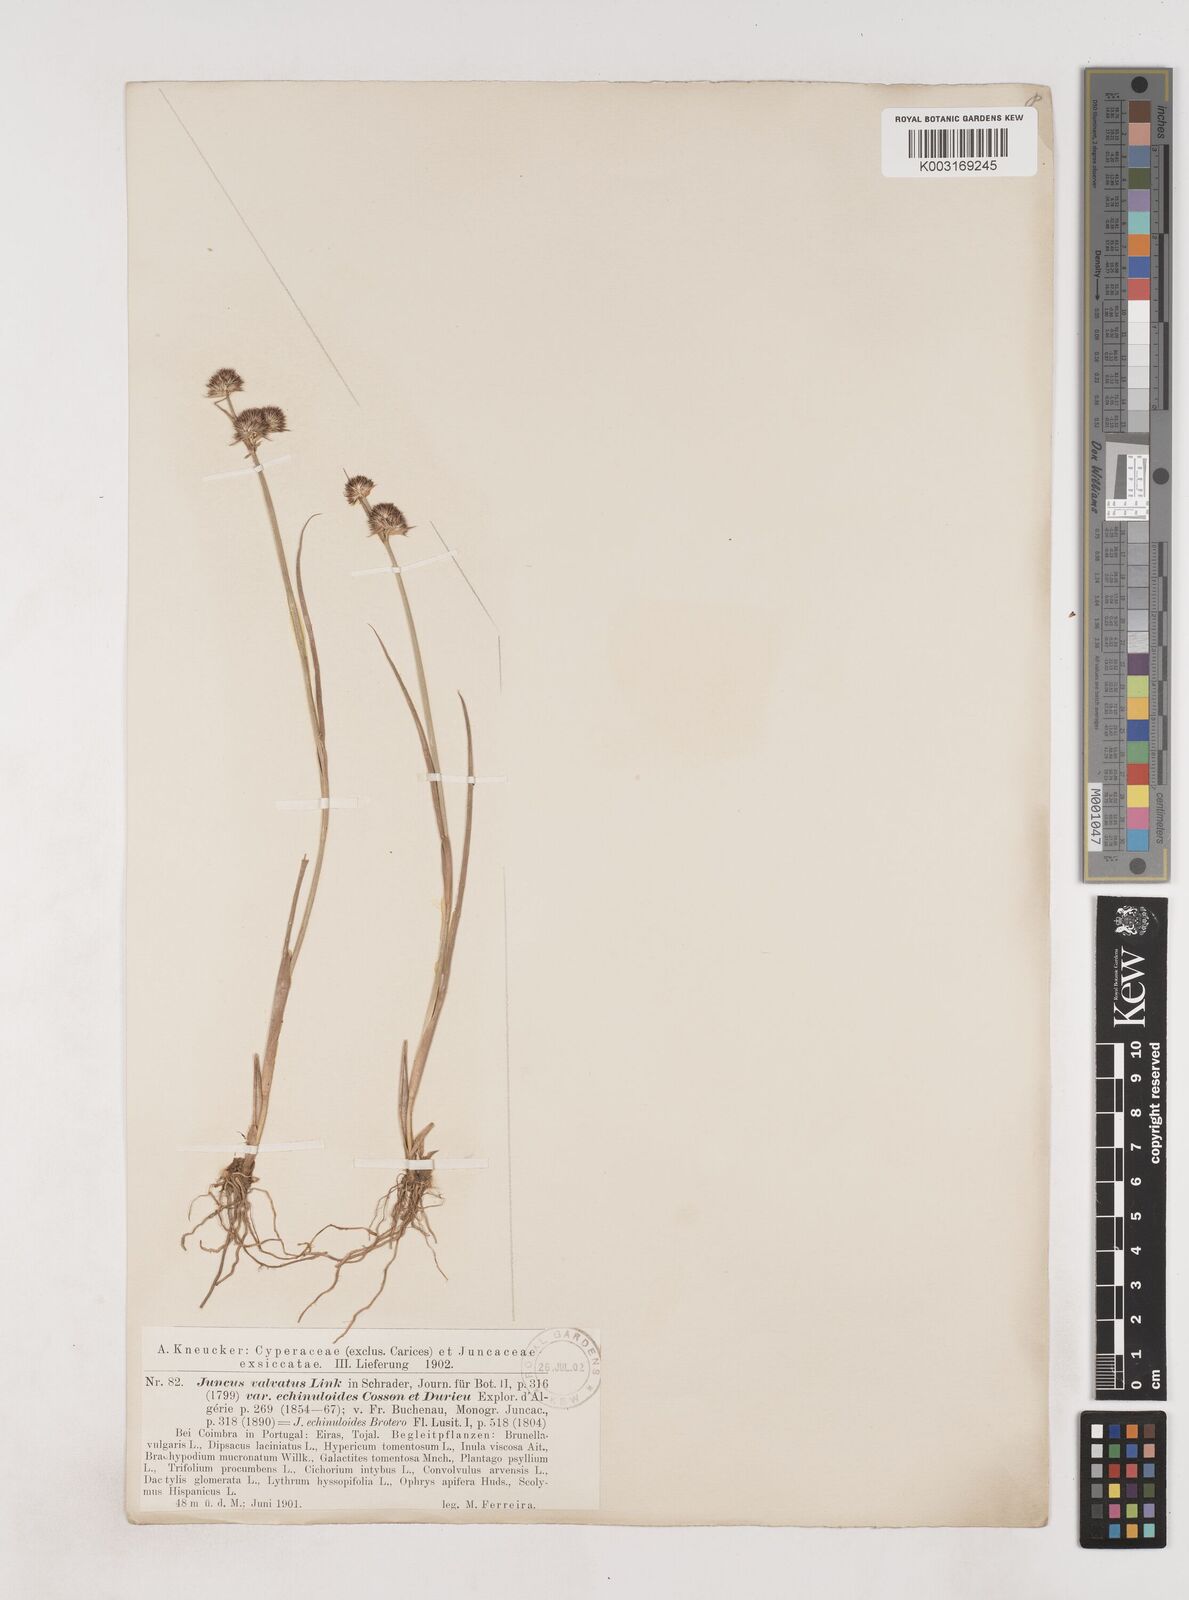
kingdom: Plantae
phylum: Tracheophyta
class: Liliopsida
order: Poales
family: Juncaceae
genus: Juncus
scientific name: Juncus valvatus
